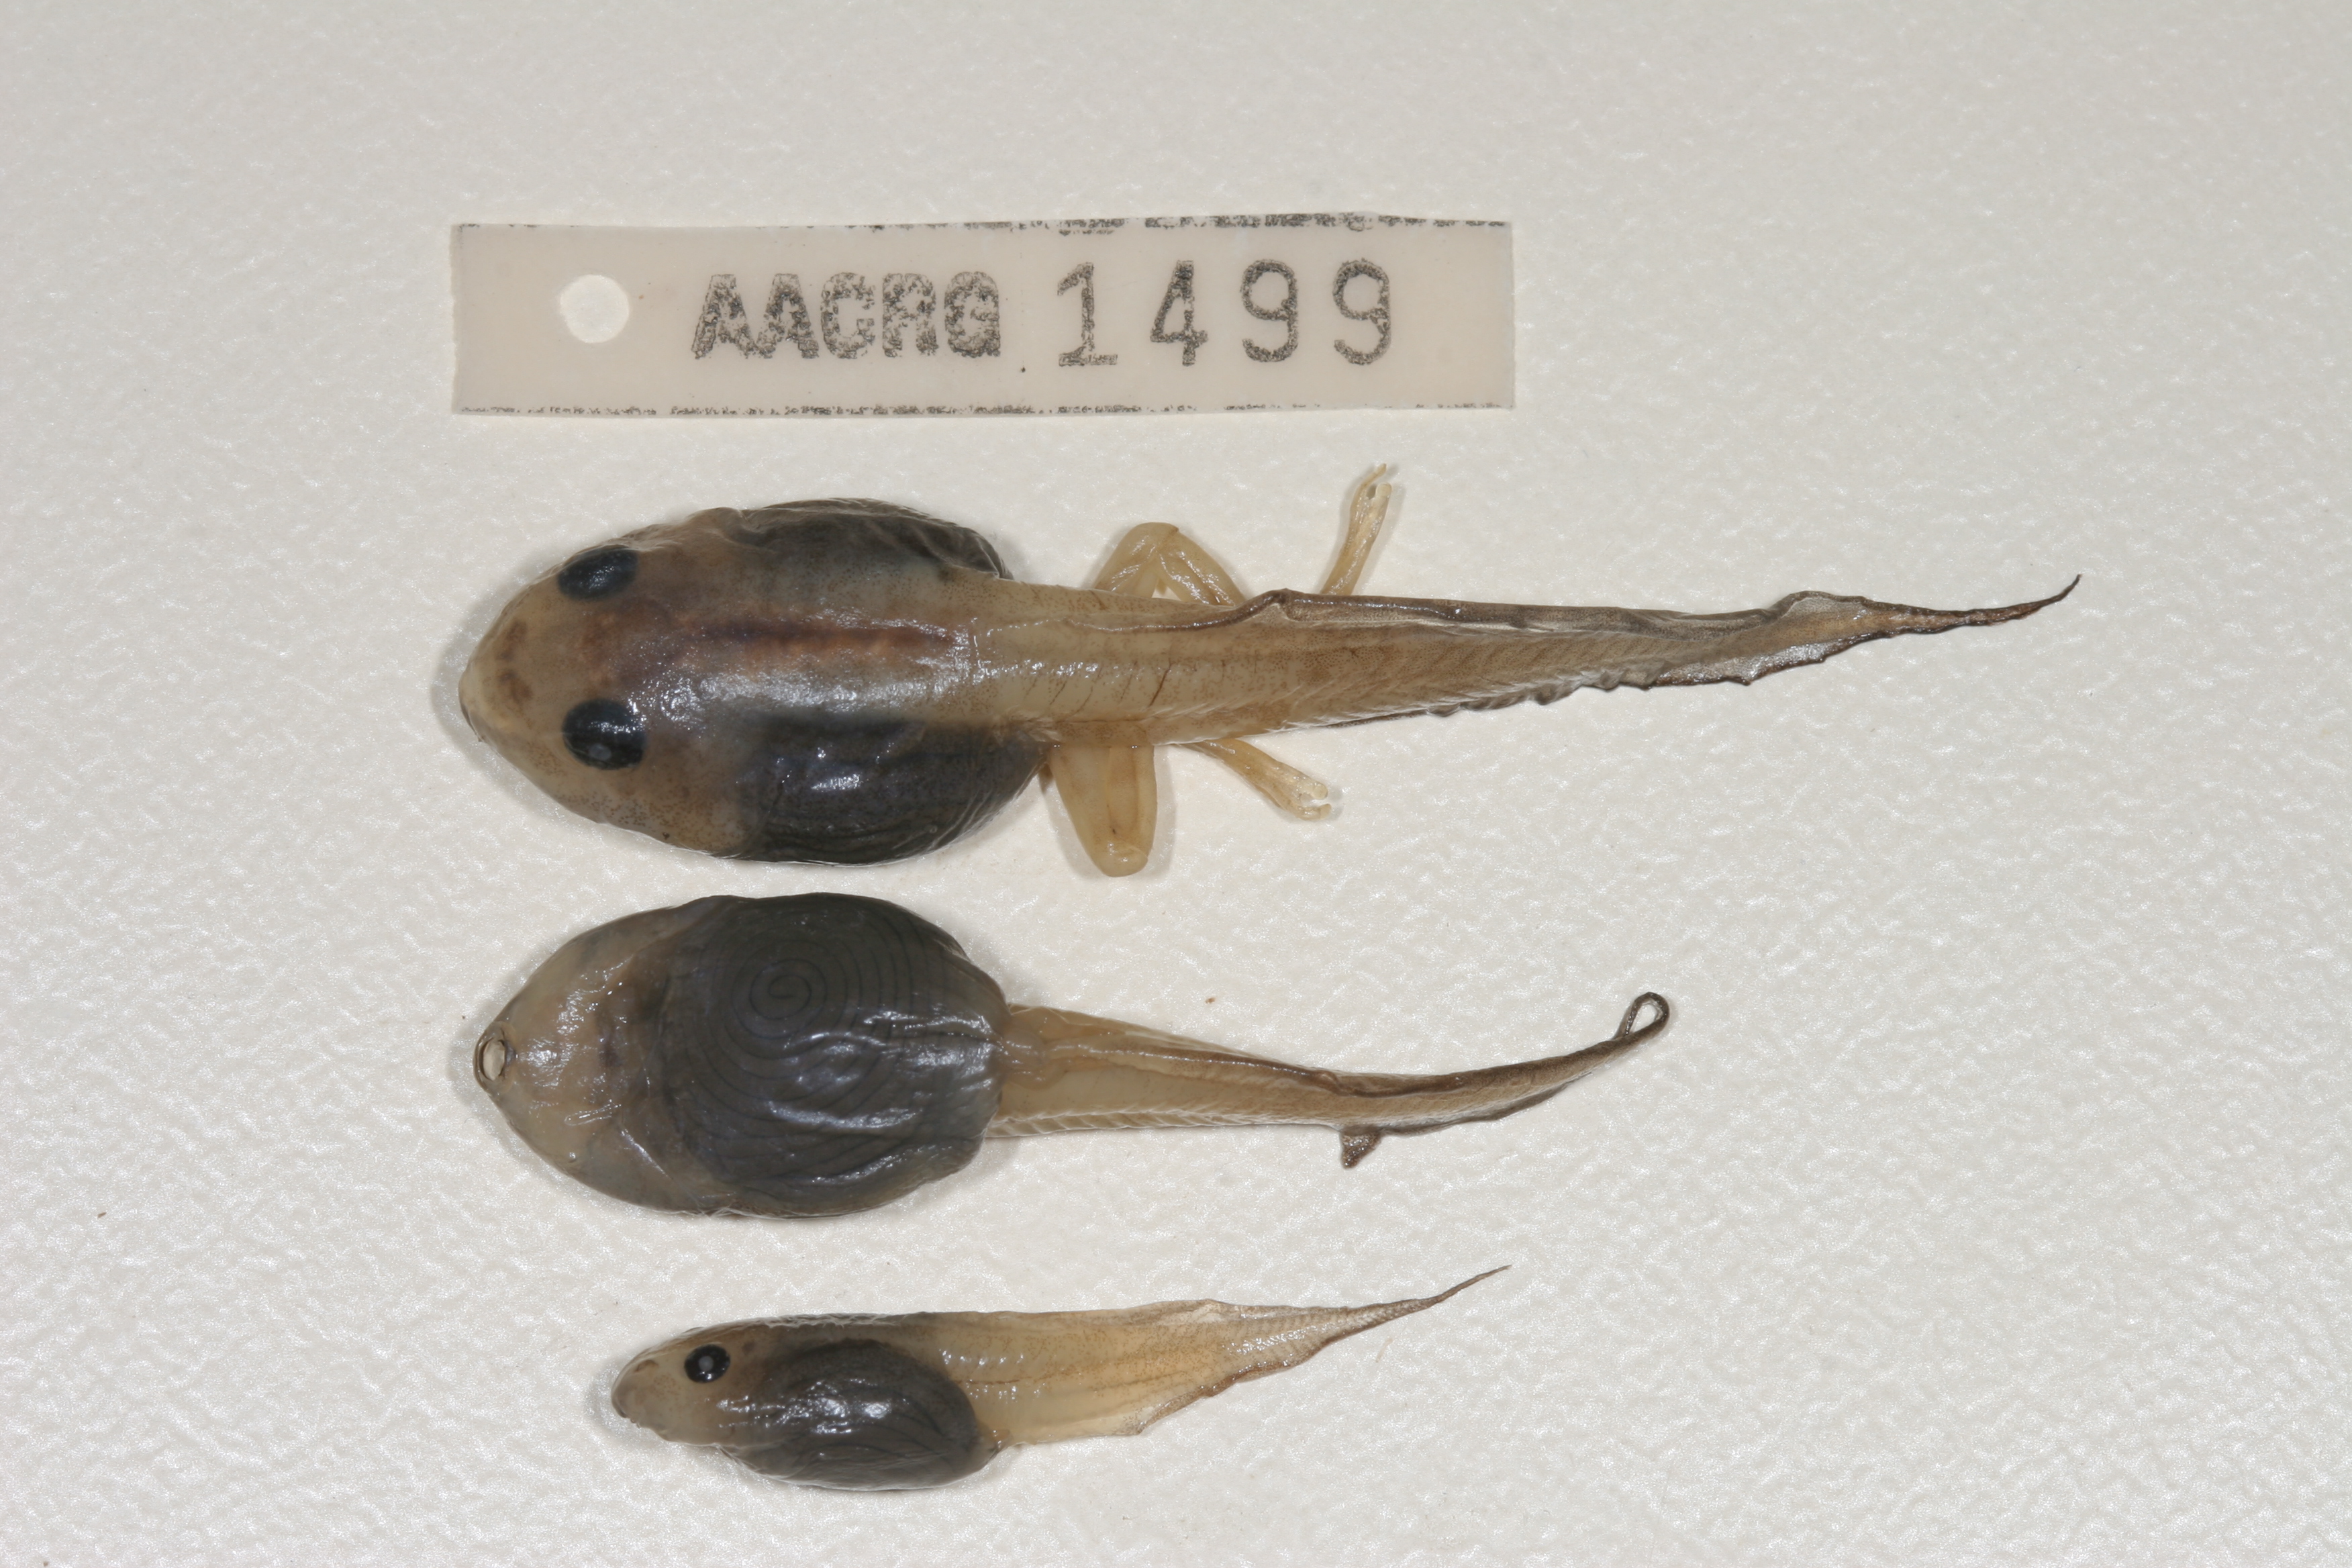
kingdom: Animalia
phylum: Chordata
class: Amphibia
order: Anura
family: Rhacophoridae
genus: Chiromantis
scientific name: Chiromantis xerampelina
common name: African gray treefrog
